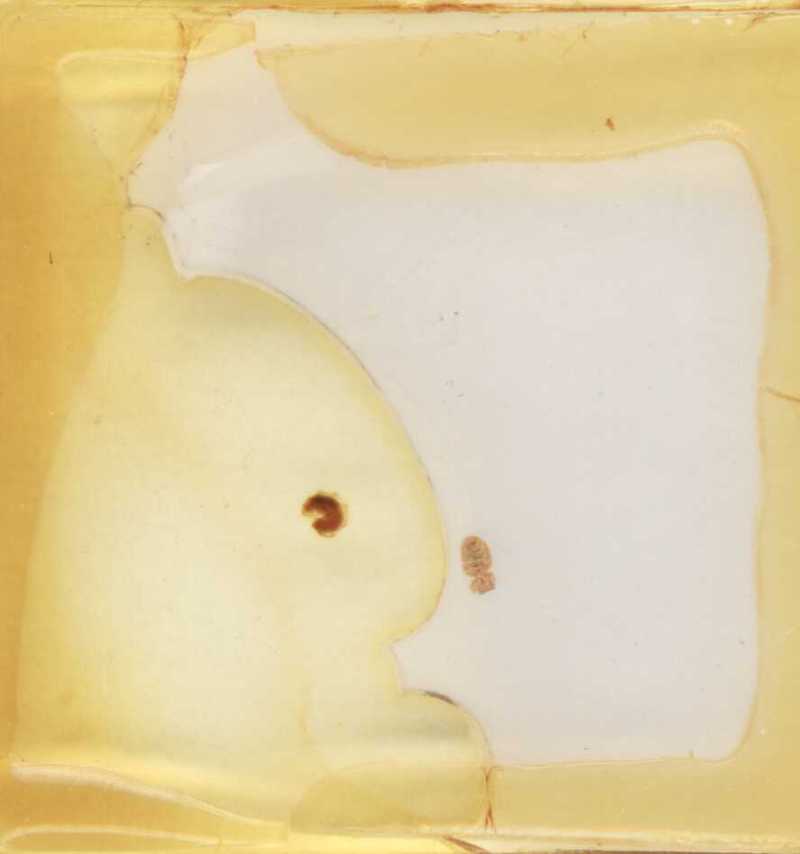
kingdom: Animalia
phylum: Arthropoda
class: Diplopoda
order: Glomerida
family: Glomeridae
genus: Gervaisia
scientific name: Gervaisia gibbula
